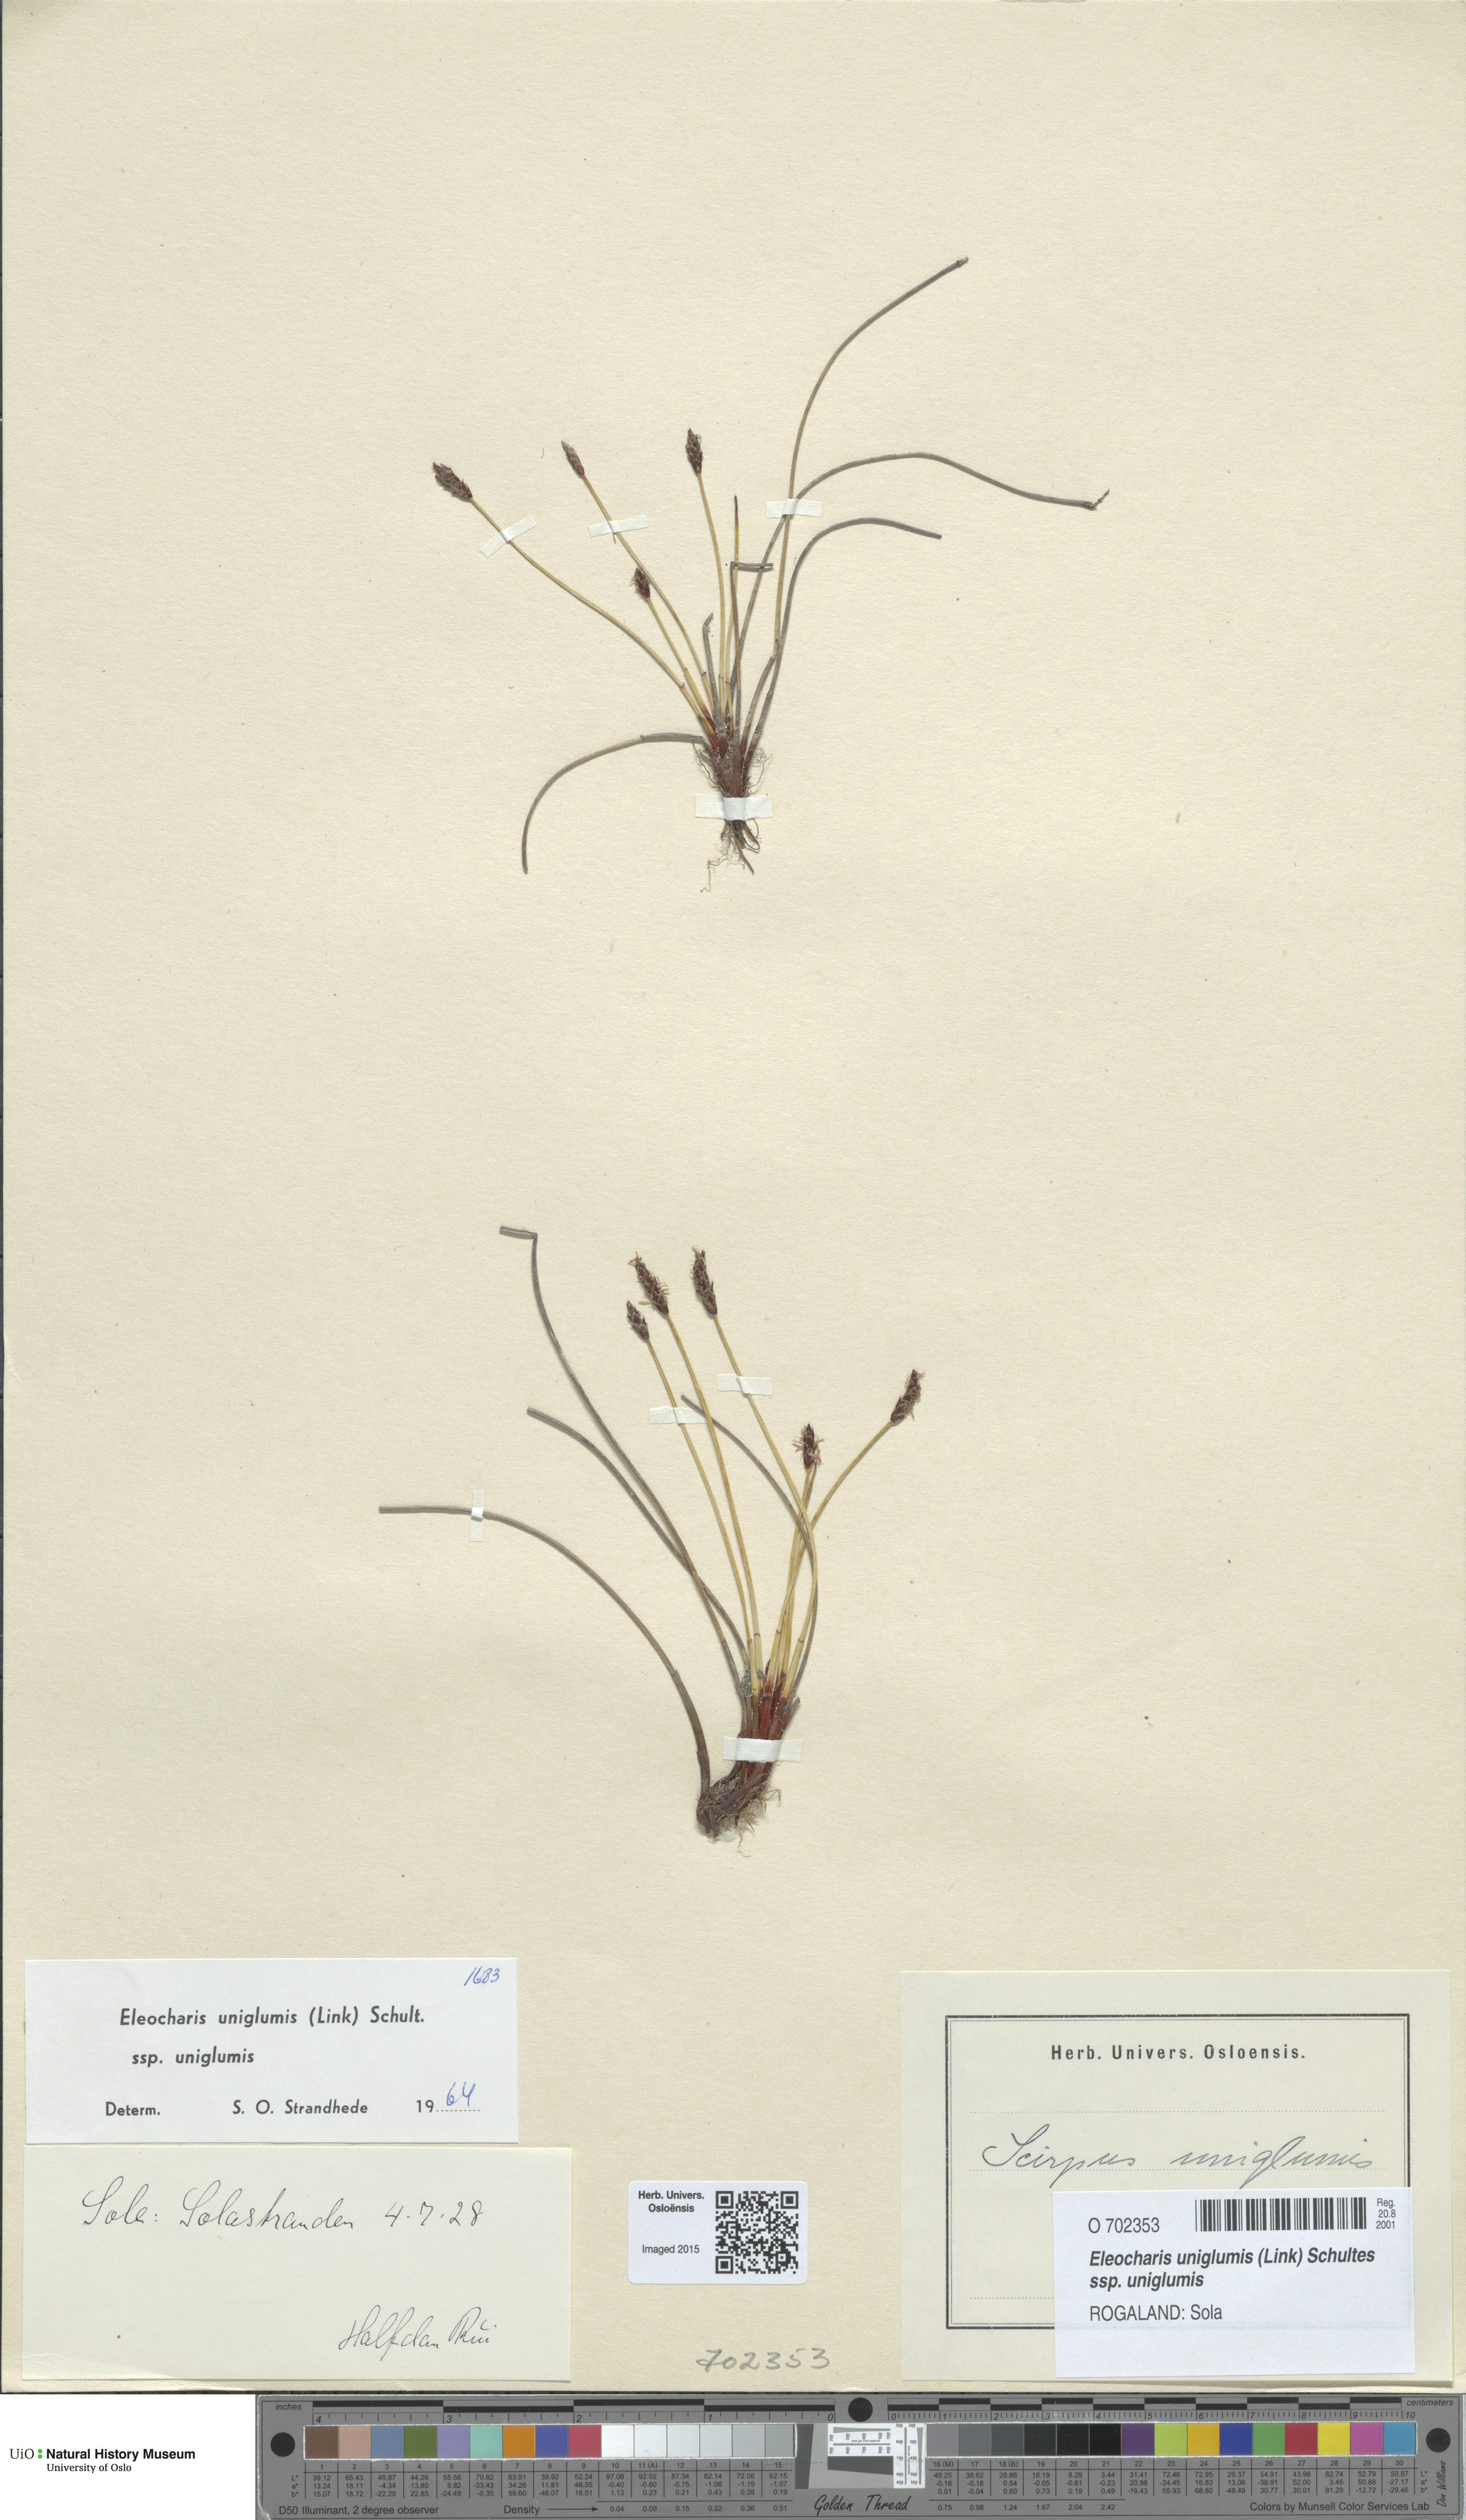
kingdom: Plantae
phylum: Tracheophyta
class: Liliopsida
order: Poales
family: Cyperaceae
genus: Eleocharis
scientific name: Eleocharis uniglumis
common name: Slender spike-rush
